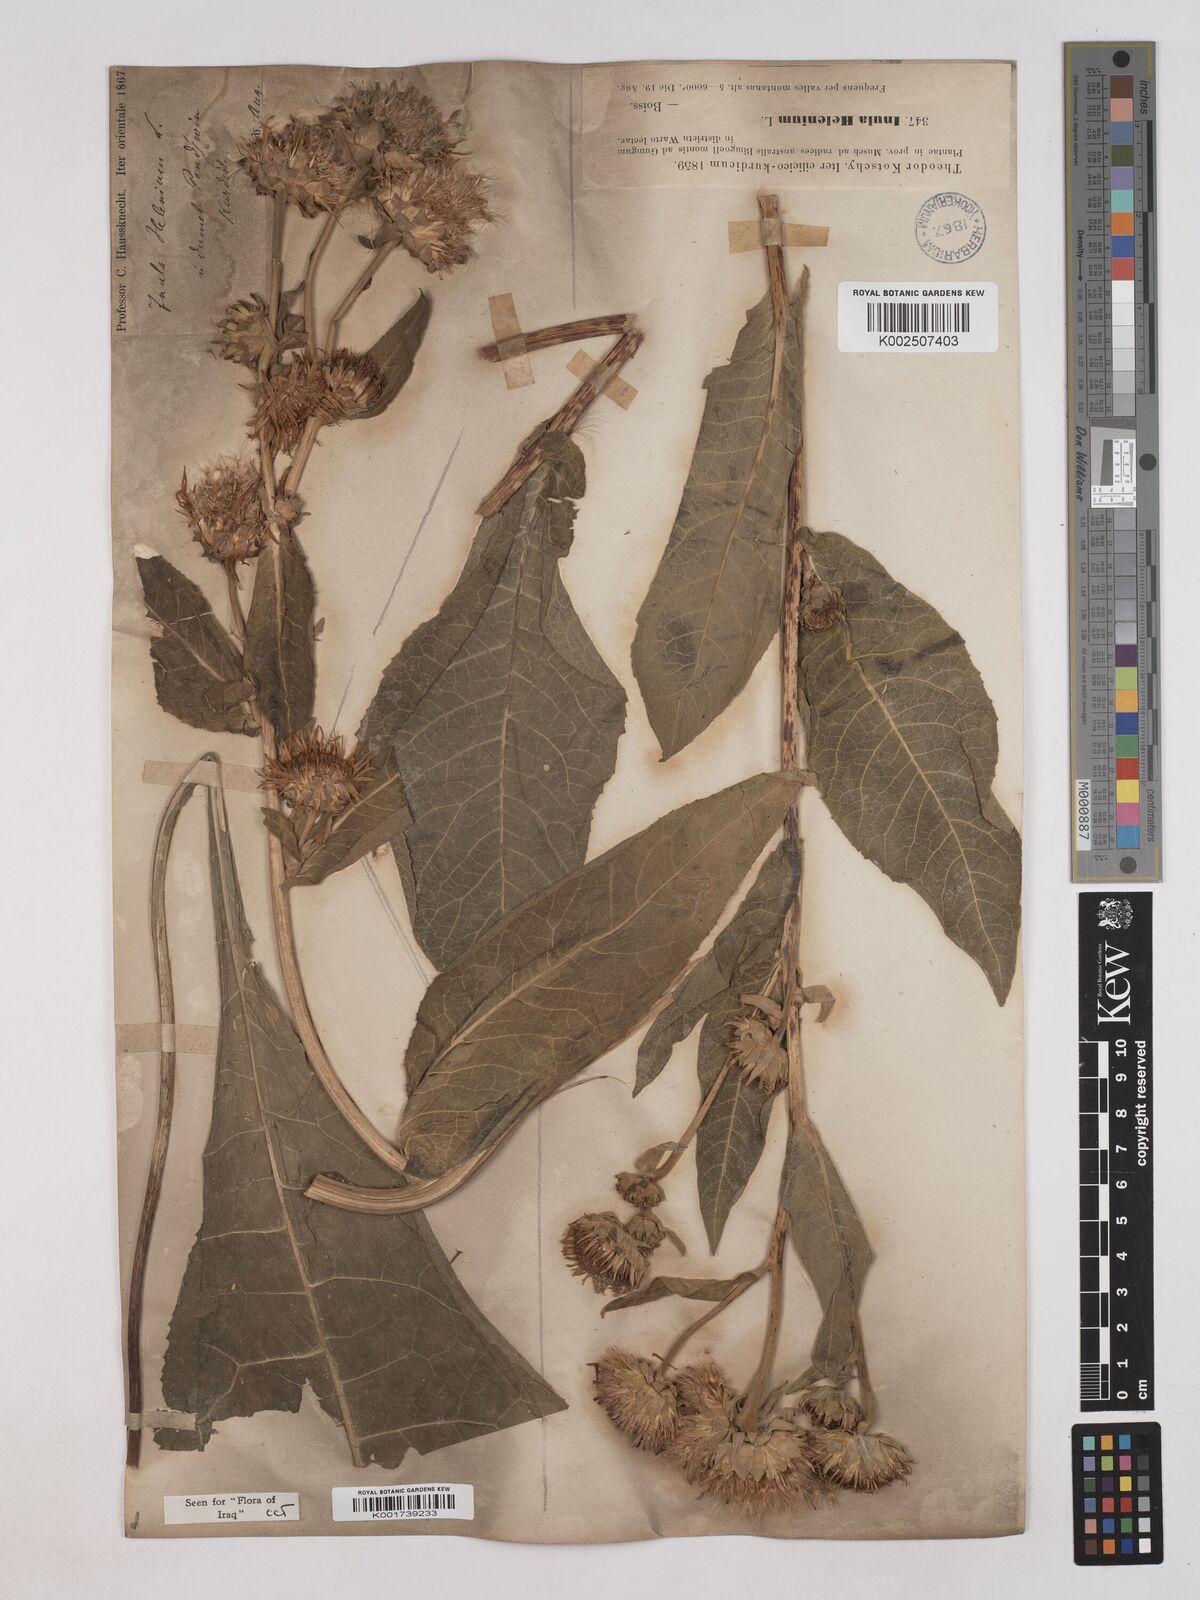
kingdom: Plantae
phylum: Tracheophyta
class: Magnoliopsida
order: Asterales
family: Asteraceae
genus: Inula
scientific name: Inula
